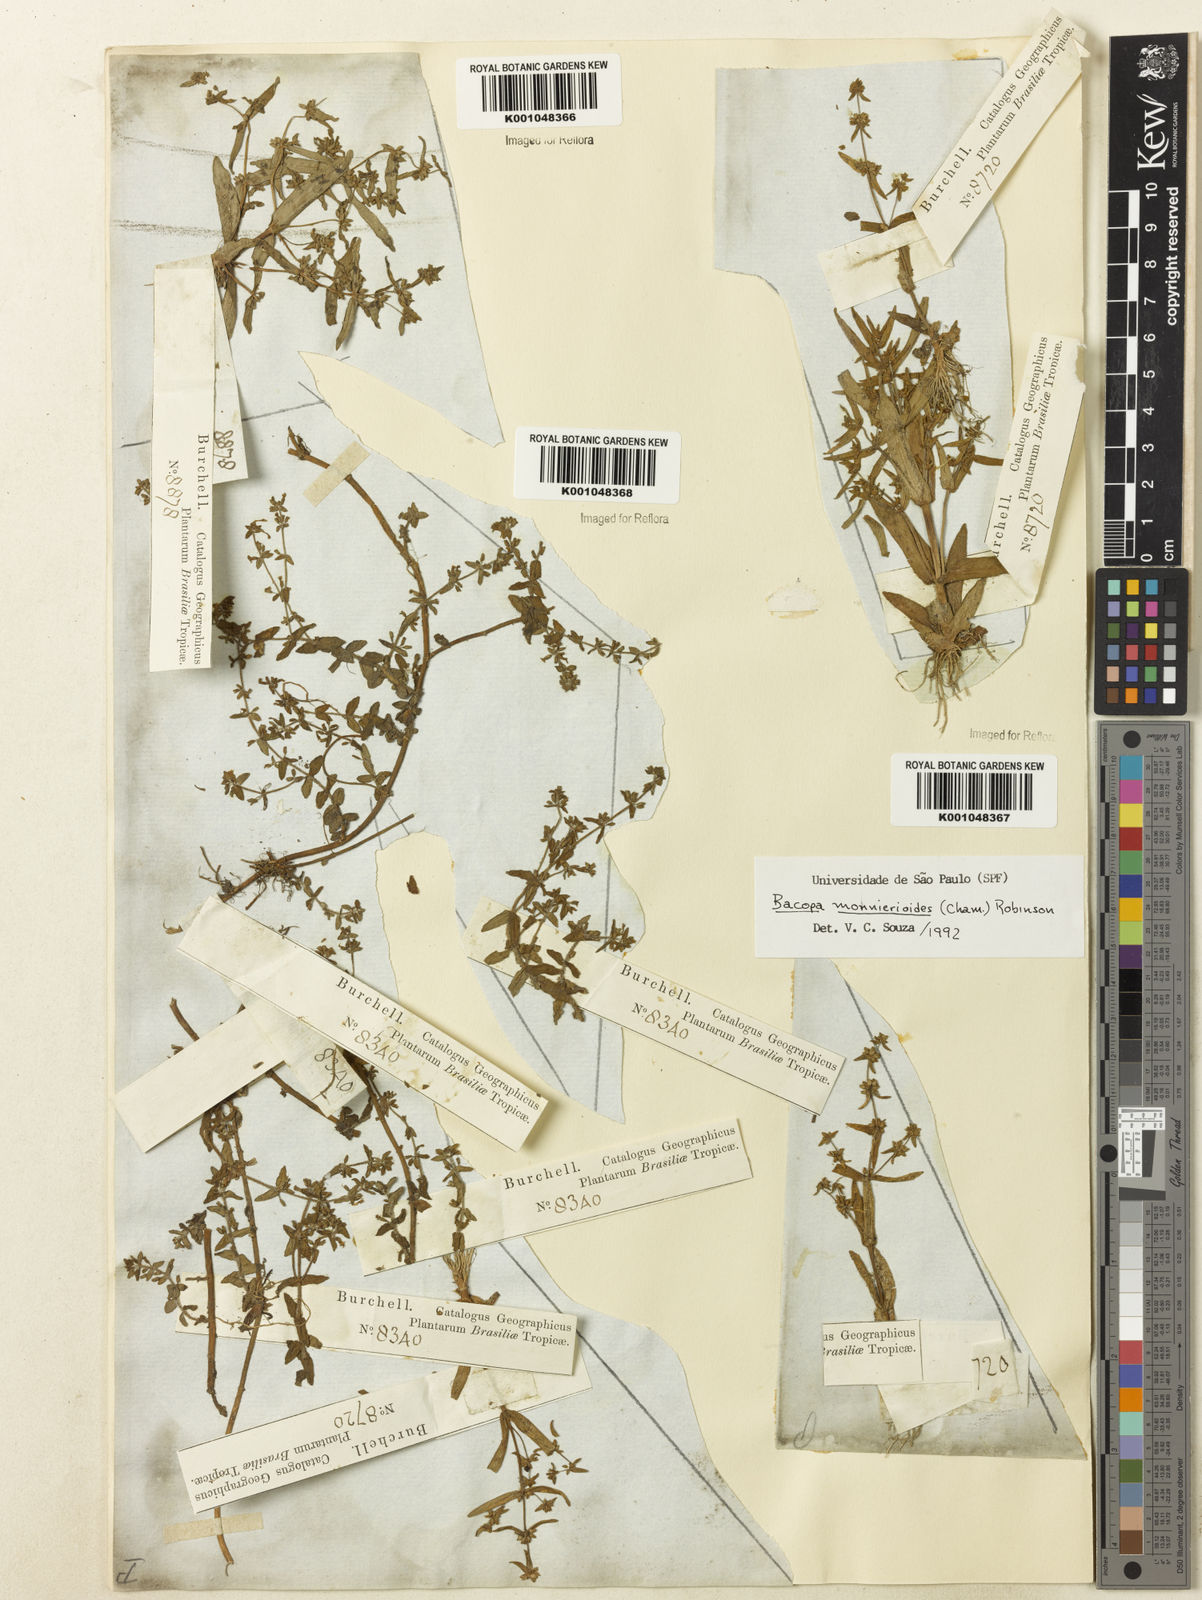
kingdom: Plantae
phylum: Tracheophyta
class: Magnoliopsida
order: Lamiales
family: Plantaginaceae
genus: Bacopa
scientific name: Bacopa monnierioides
